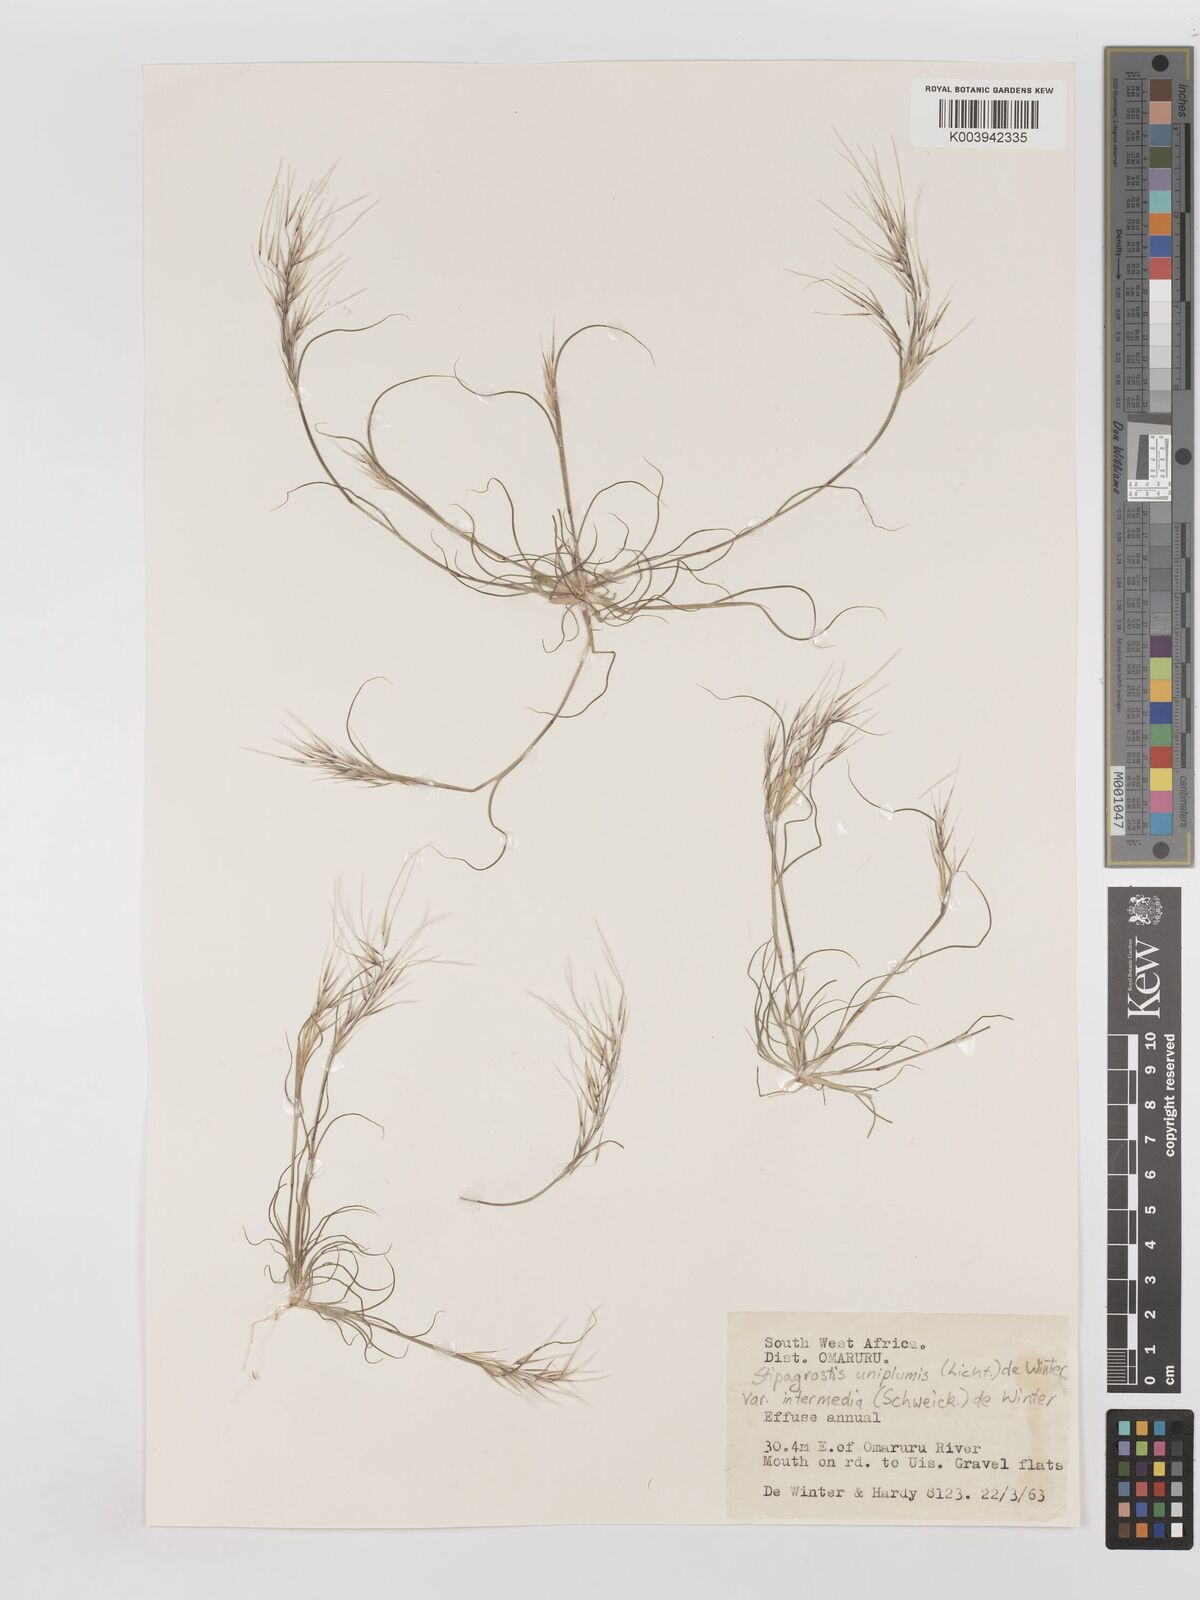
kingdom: Plantae
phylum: Tracheophyta
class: Liliopsida
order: Poales
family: Poaceae
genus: Stipagrostis
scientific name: Stipagrostis uniplumis
